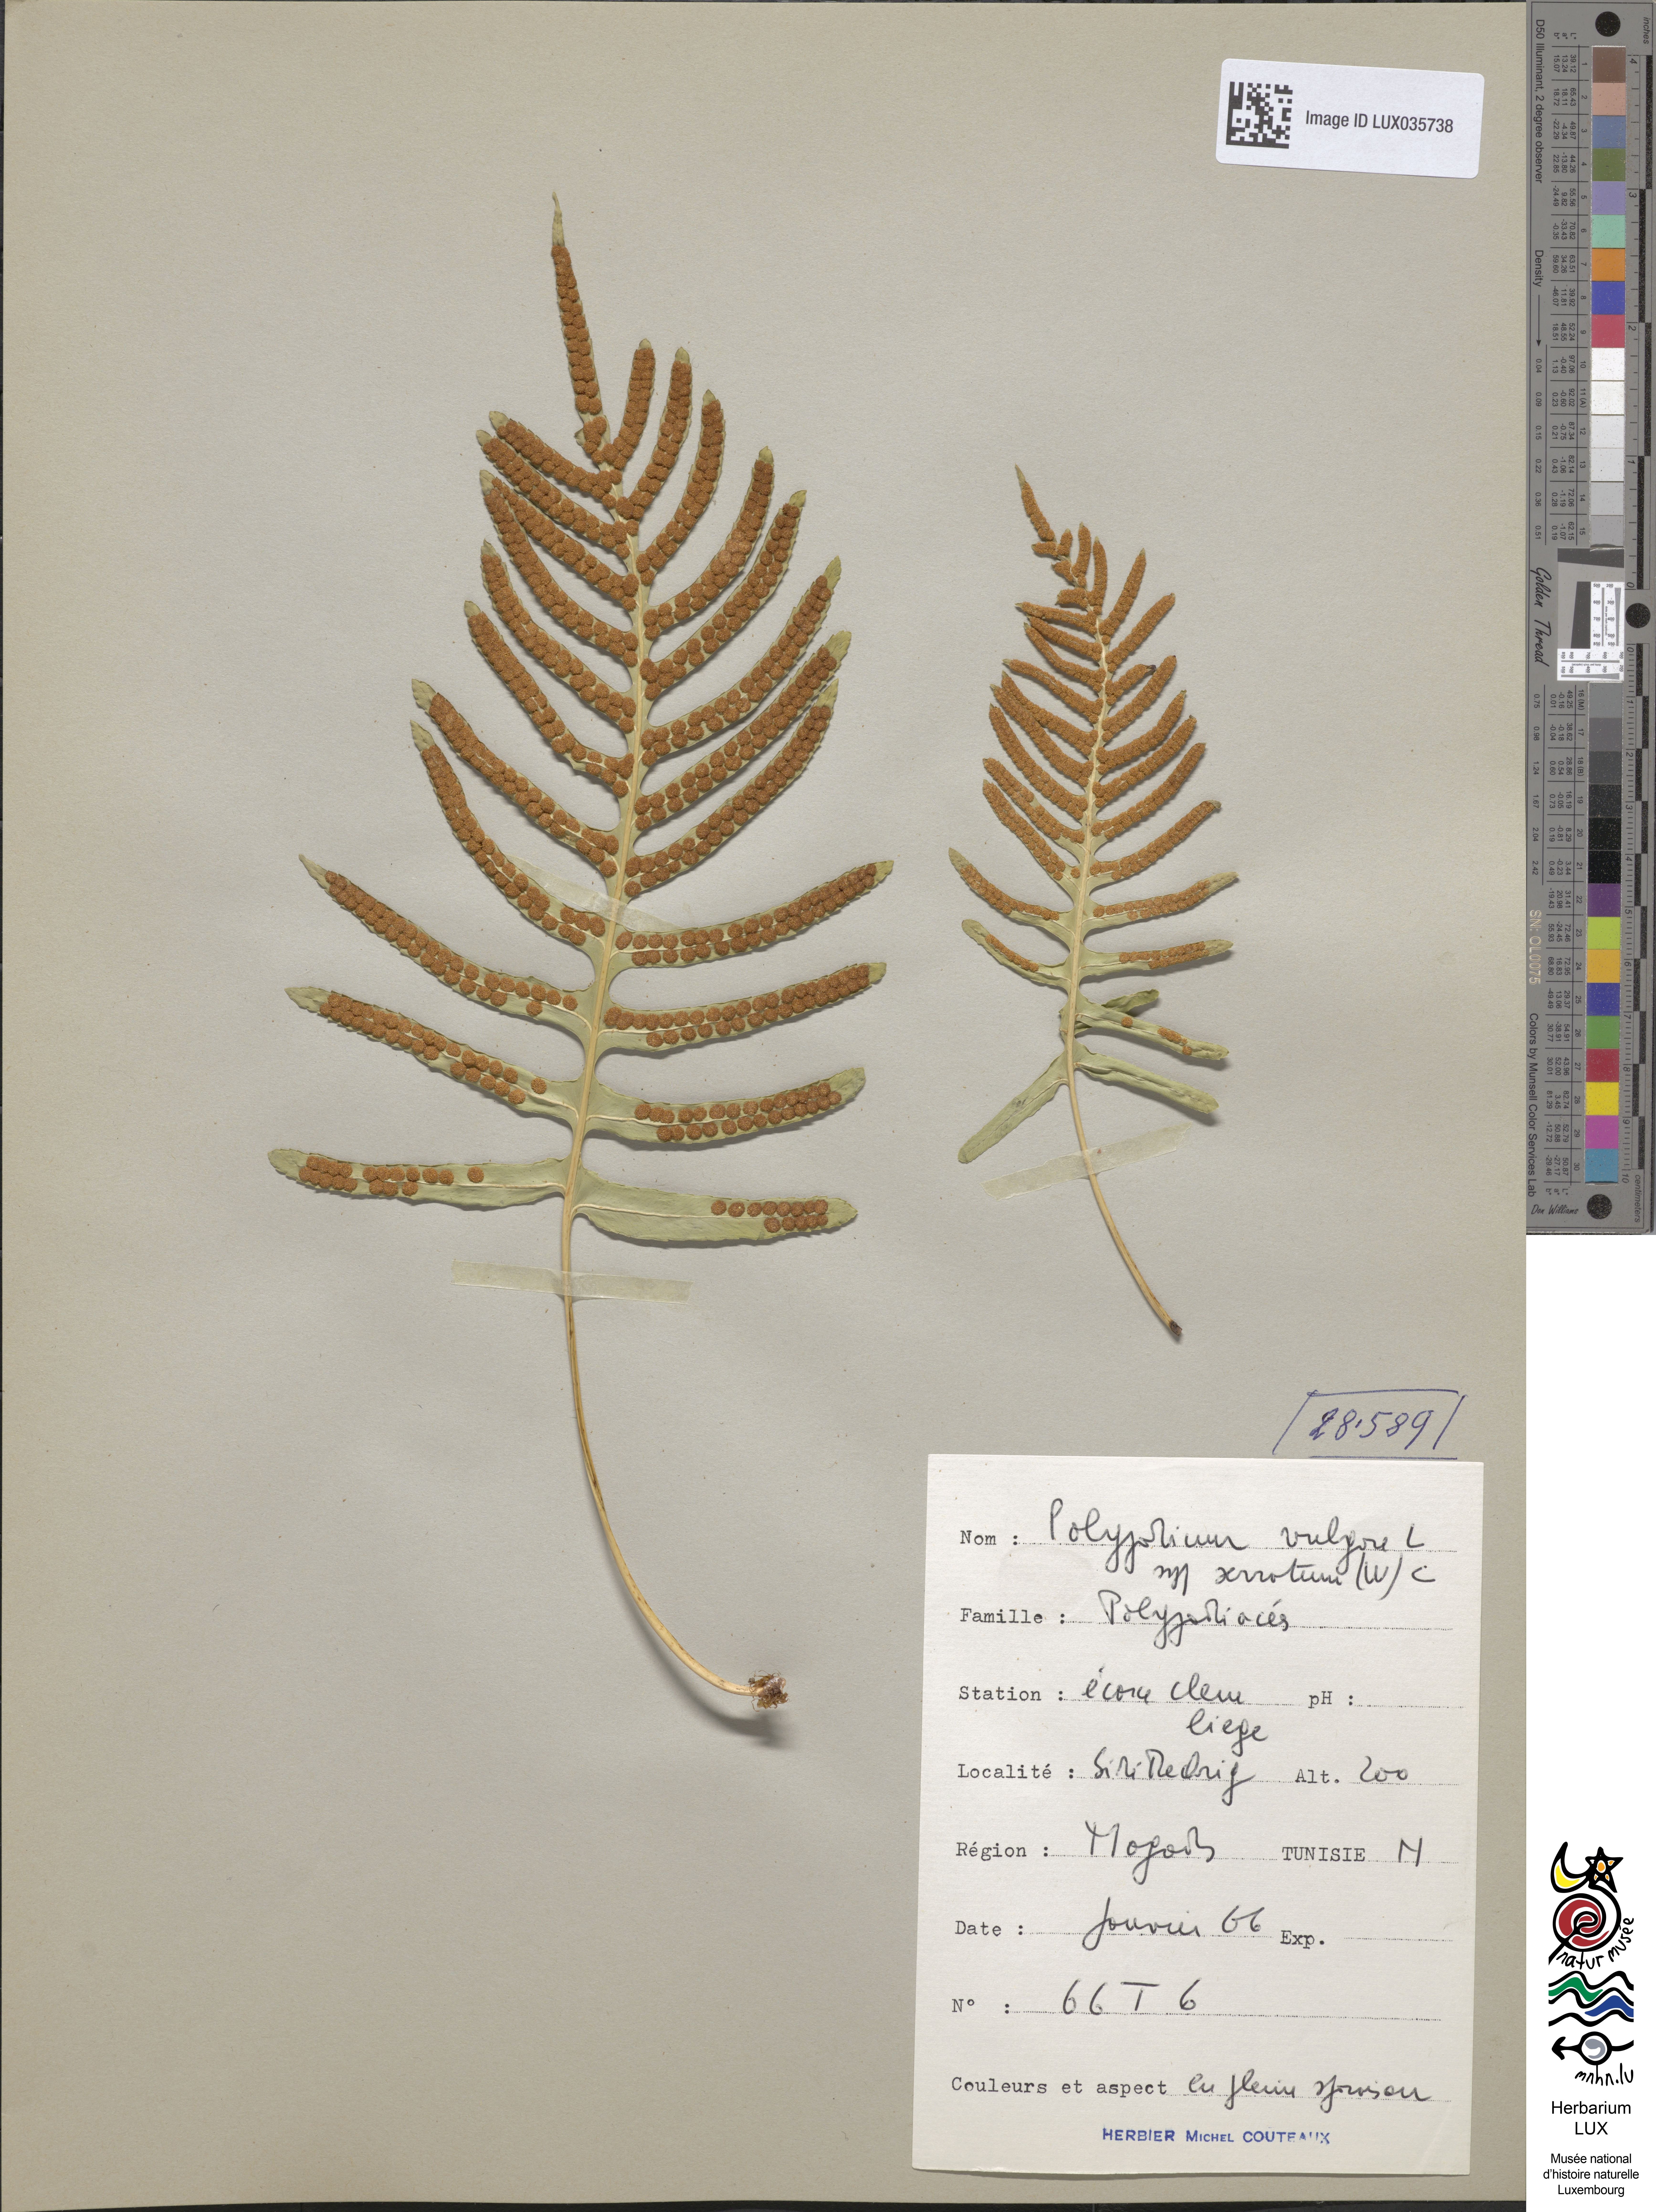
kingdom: Plantae
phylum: Tracheophyta
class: Polypodiopsida
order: Polypodiales
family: Polypodiaceae
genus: Polypodium
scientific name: Polypodium cambricum
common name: Southern polypody
